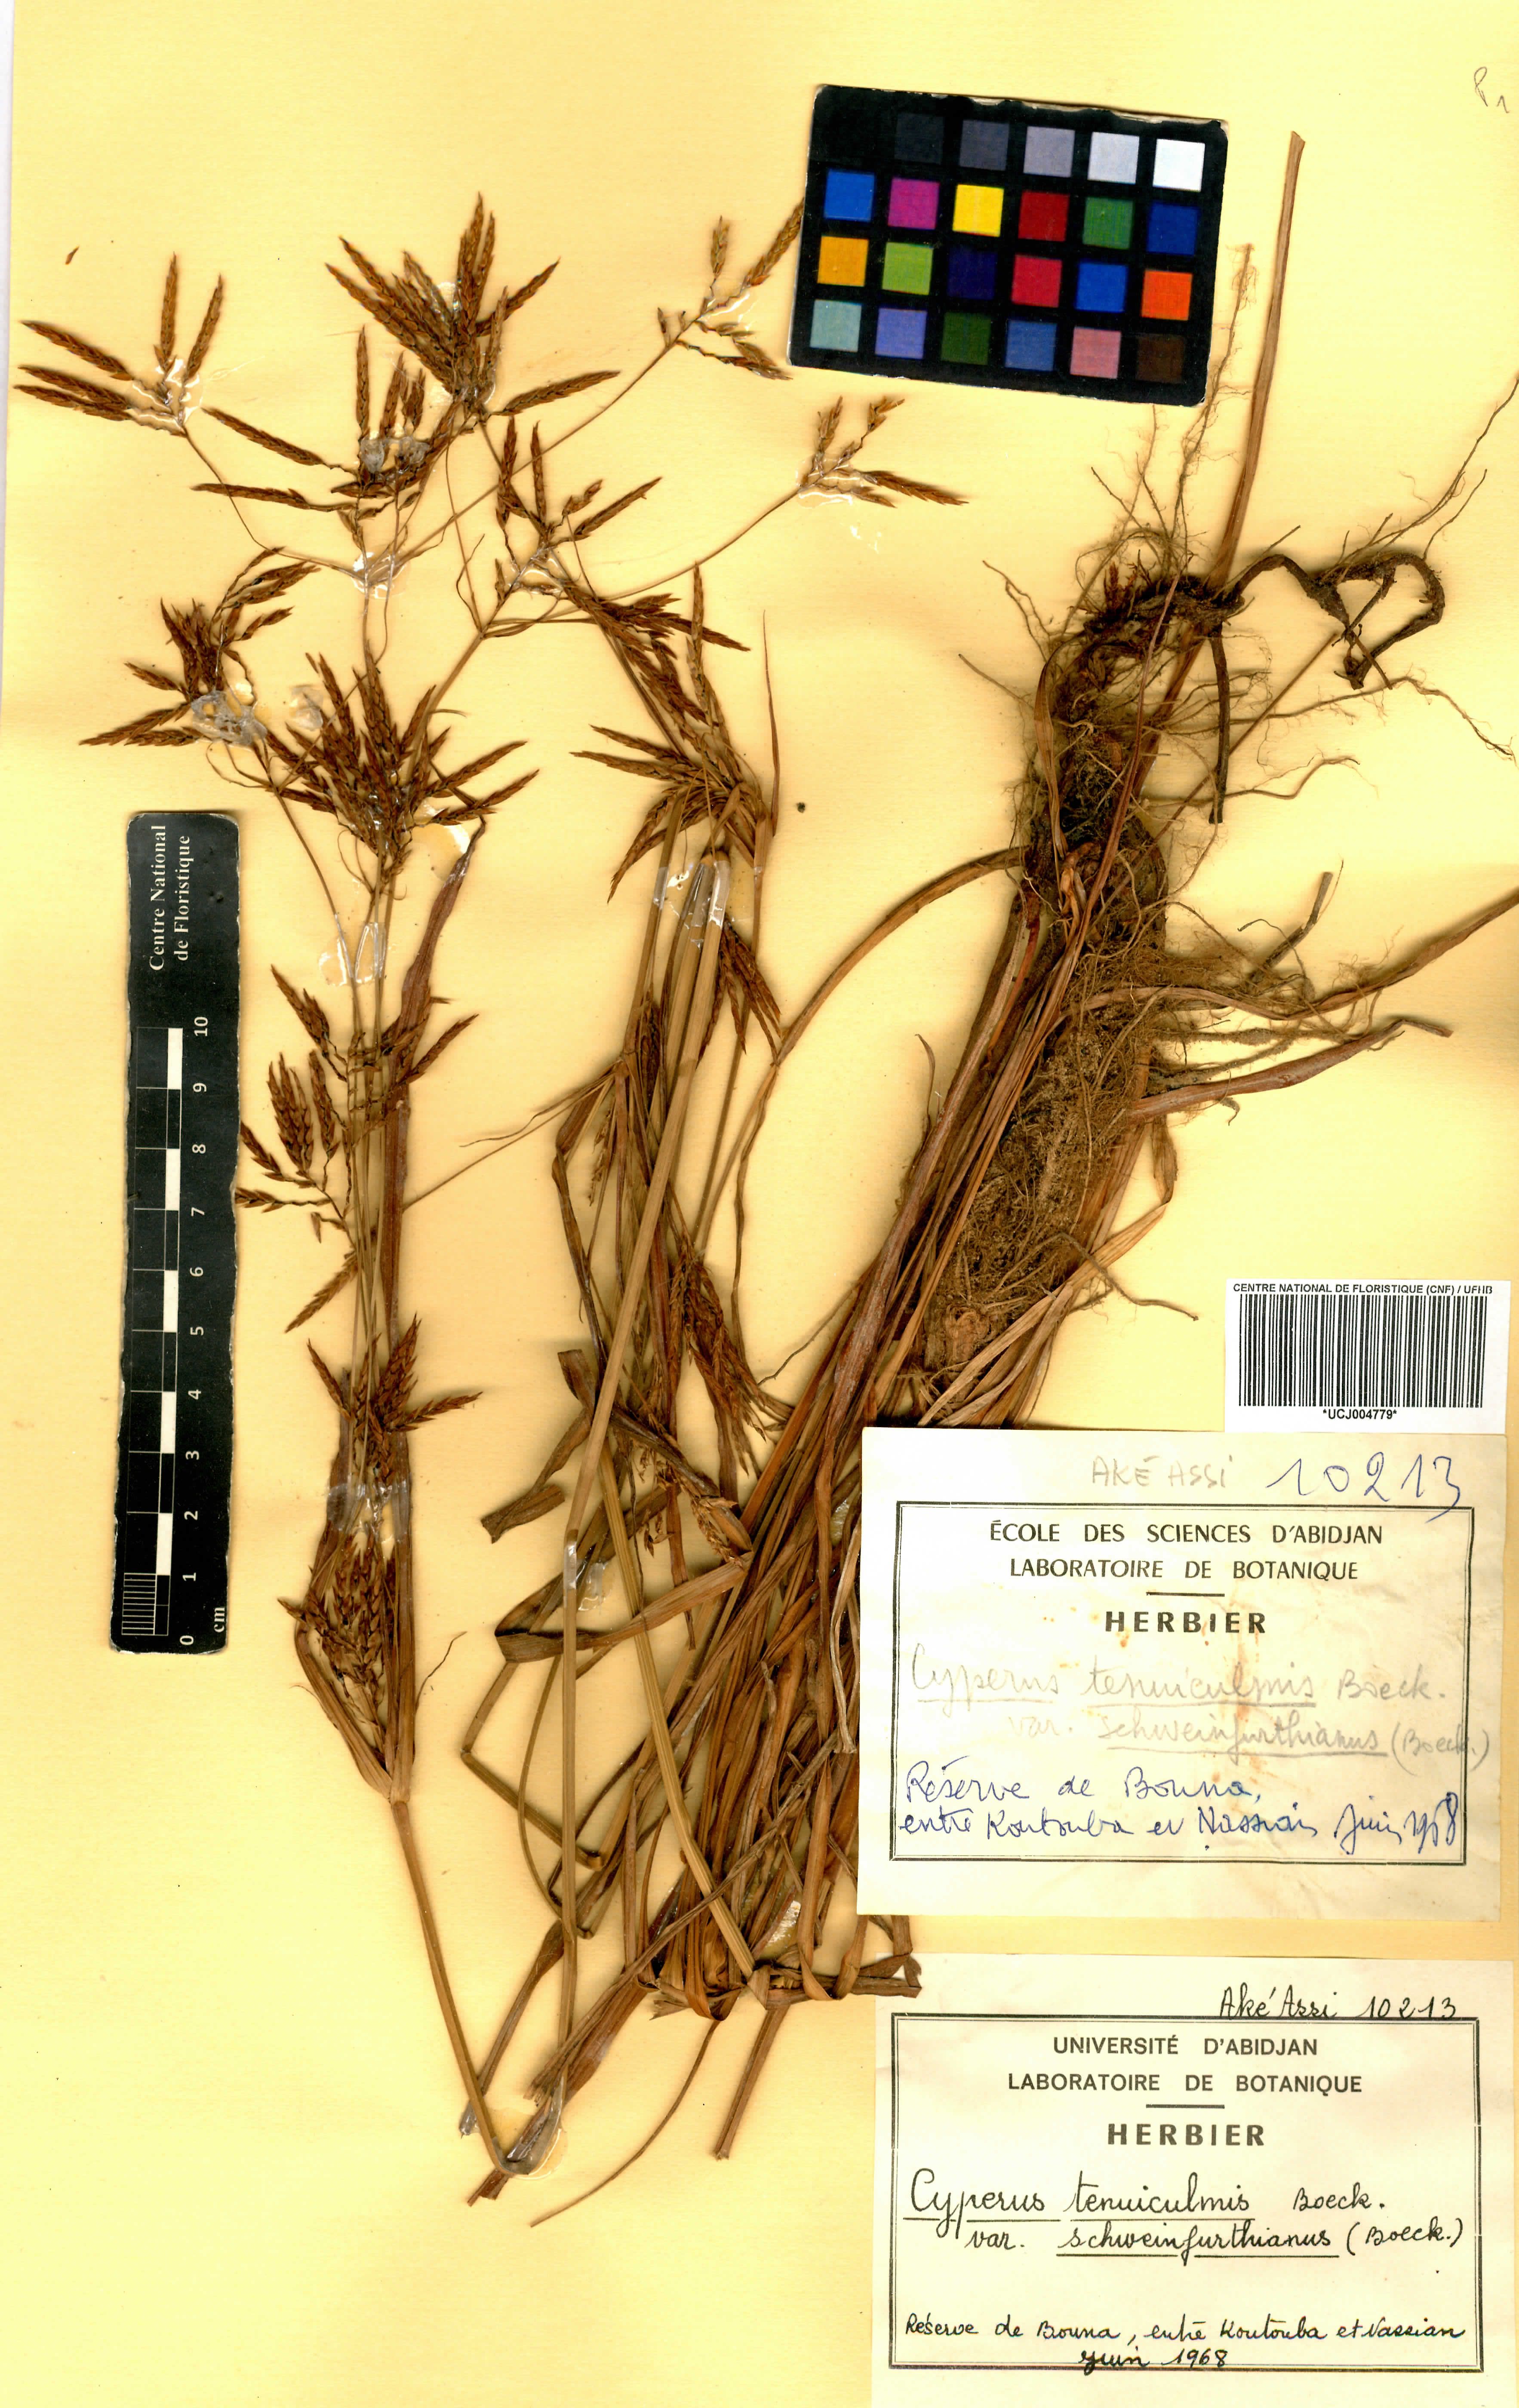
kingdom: Plantae
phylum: Tracheophyta
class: Liliopsida
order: Poales
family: Cyperaceae
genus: Cyperus
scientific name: Cyperus tenuiculmis
